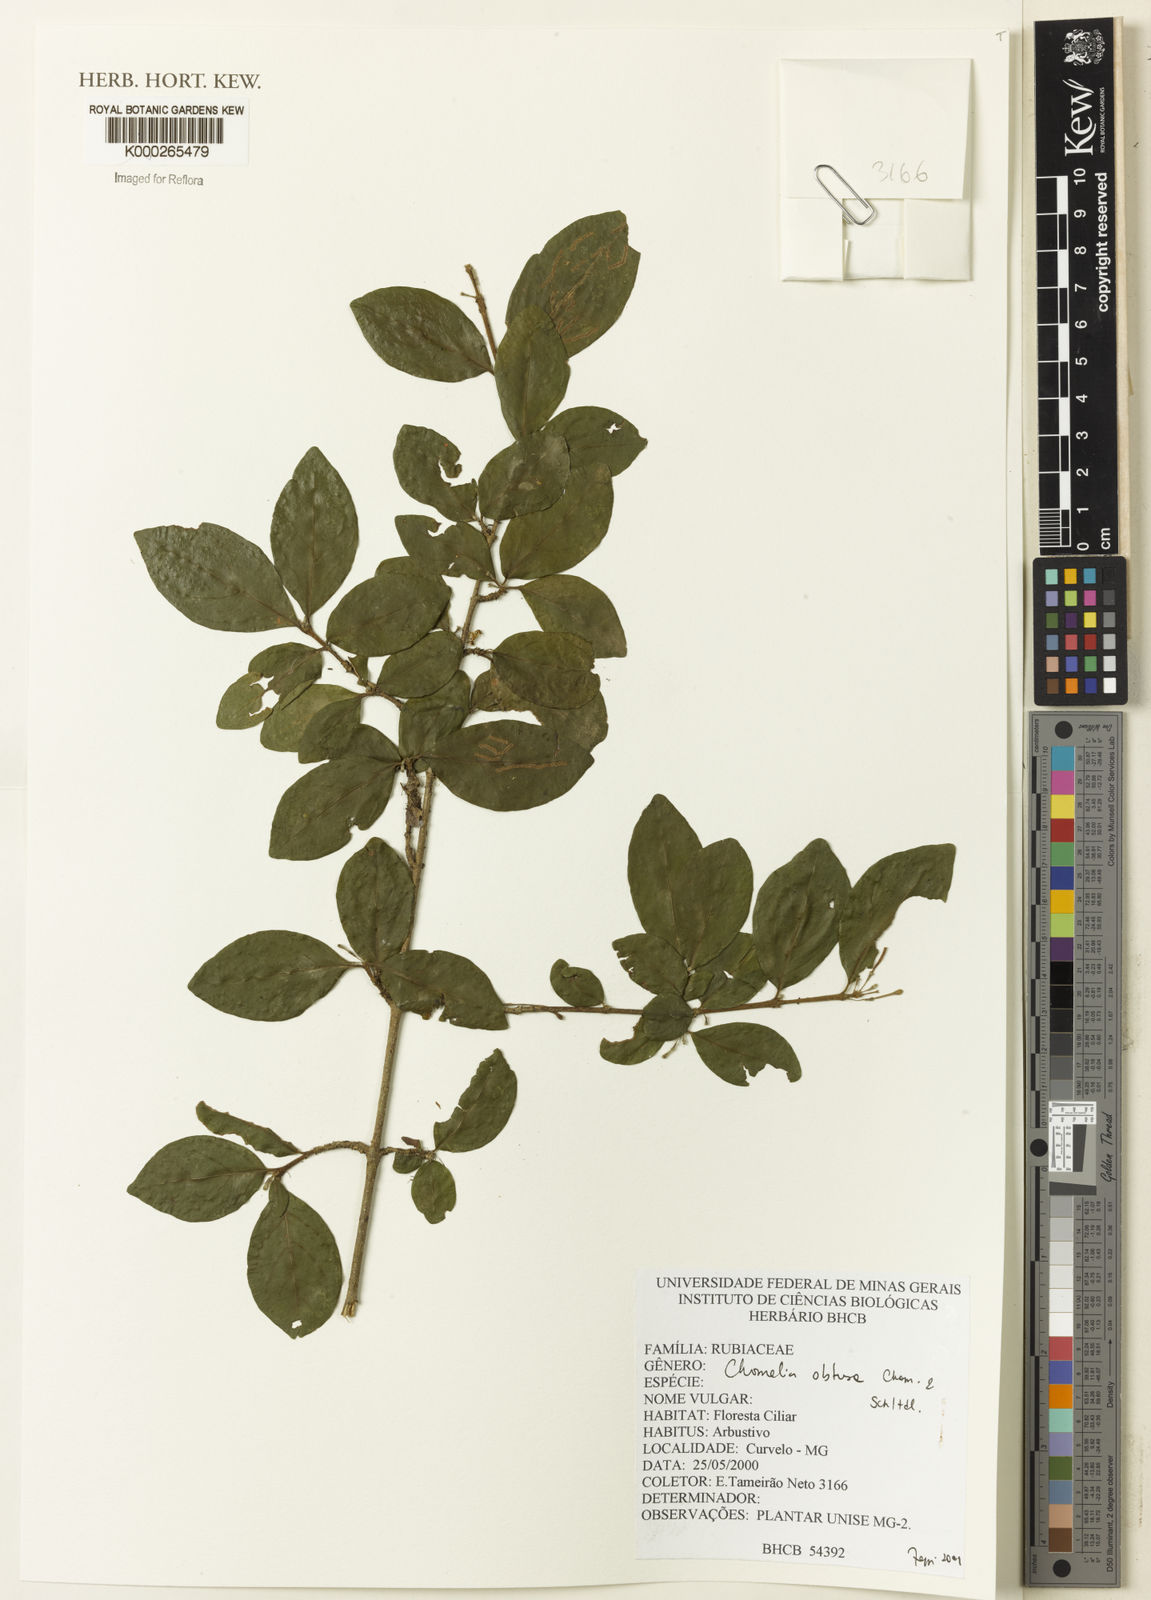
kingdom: Plantae
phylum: Tracheophyta
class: Magnoliopsida
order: Gentianales
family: Rubiaceae
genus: Chomelia
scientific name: Chomelia obtusa
